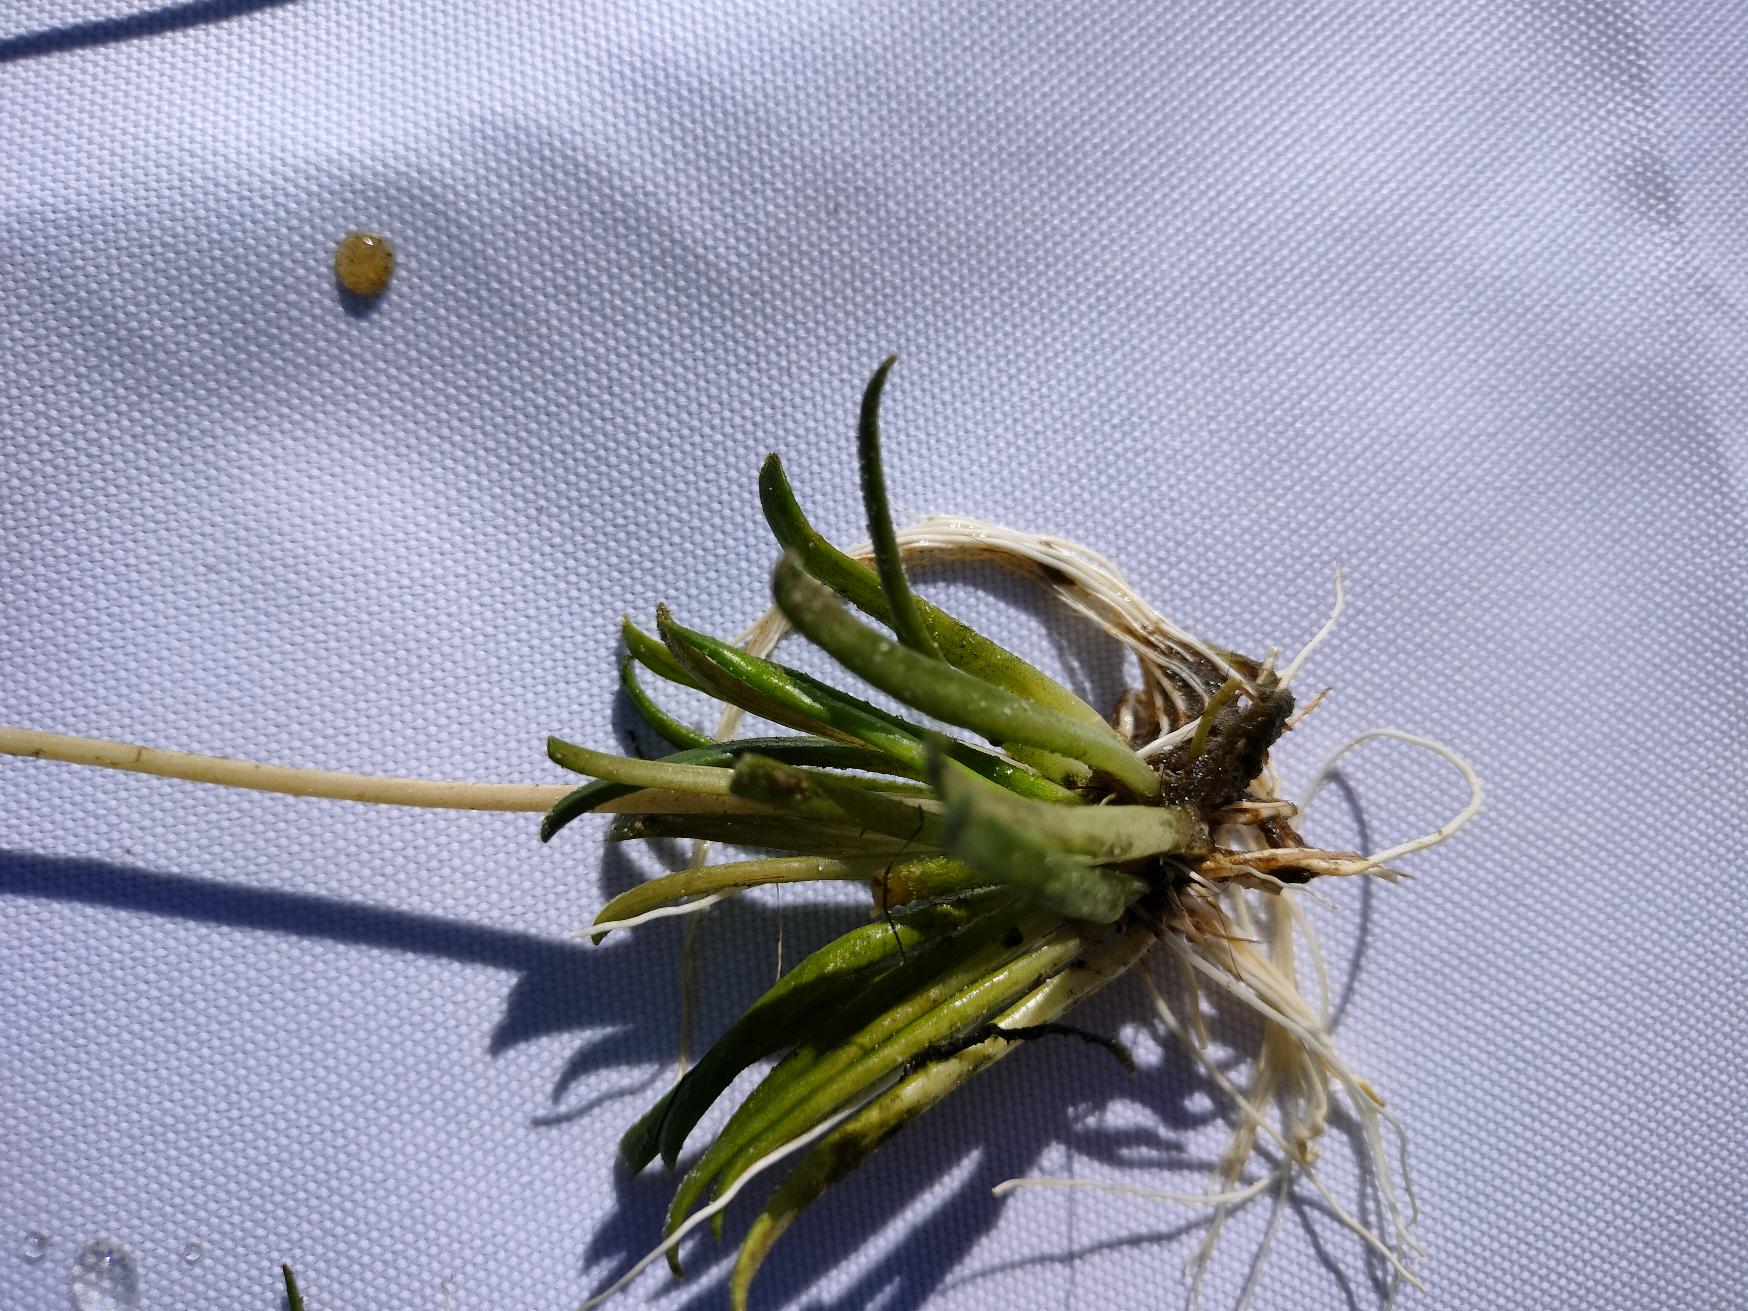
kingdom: Plantae
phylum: Tracheophyta
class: Magnoliopsida
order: Asterales
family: Campanulaceae
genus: Lobelia
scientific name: Lobelia dortmanna
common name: Tvepibet lobelie
